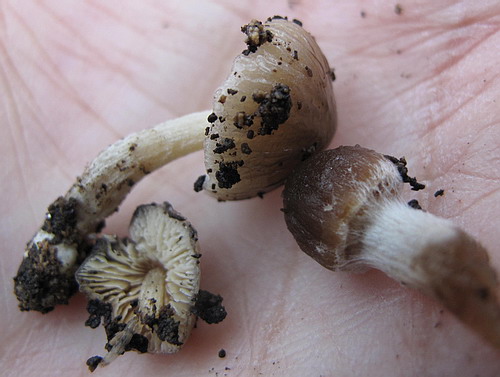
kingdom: Fungi
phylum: Basidiomycota
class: Agaricomycetes
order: Agaricales
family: Bolbitiaceae
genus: Bolbitius
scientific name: Bolbitius reticulatus
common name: netåret gulhat
